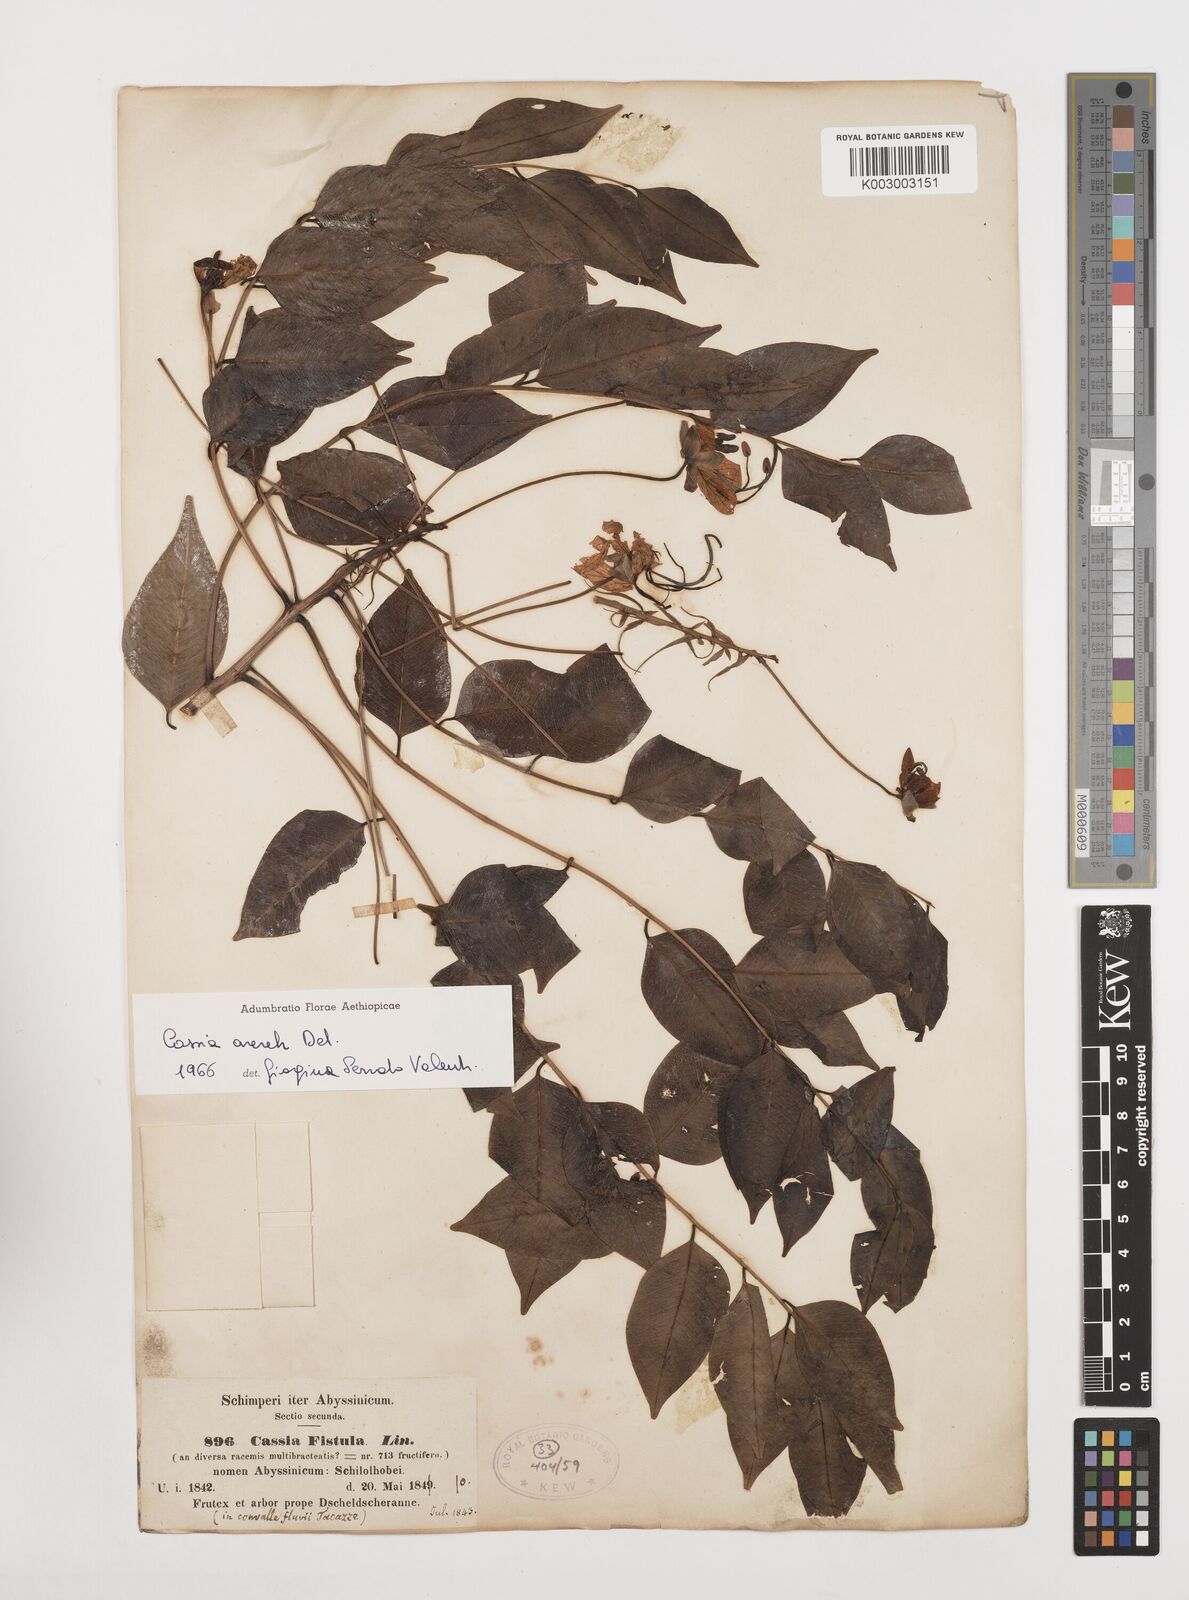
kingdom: Plantae
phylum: Tracheophyta
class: Magnoliopsida
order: Fabales
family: Fabaceae
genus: Cassia
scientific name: Cassia arereh
